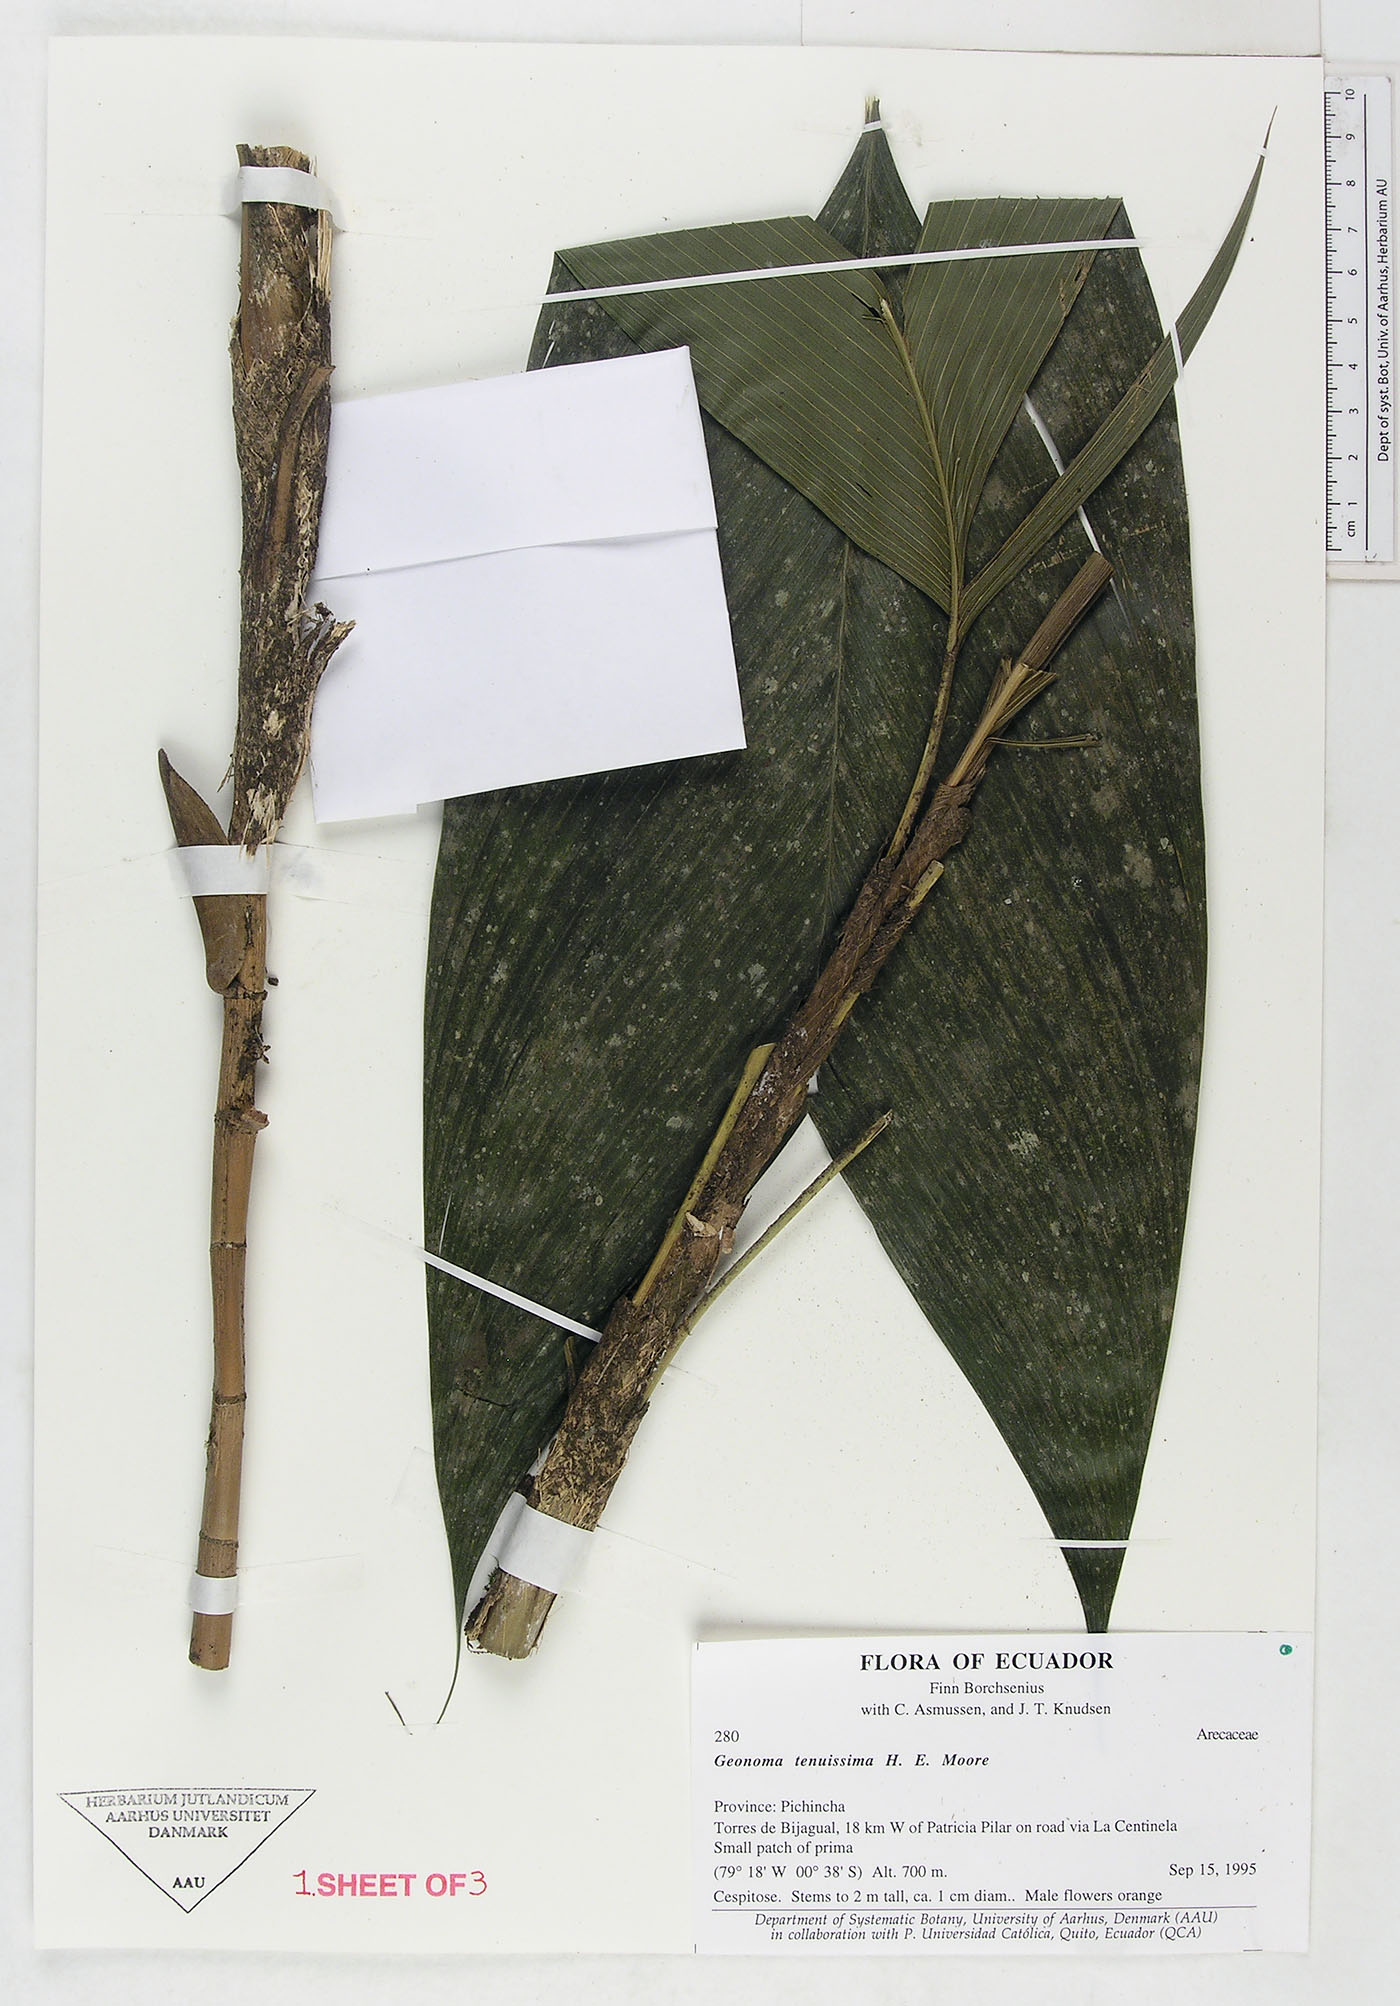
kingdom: Plantae
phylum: Tracheophyta
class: Liliopsida
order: Arecales
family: Arecaceae
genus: Geonoma
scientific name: Geonoma tenuissima
